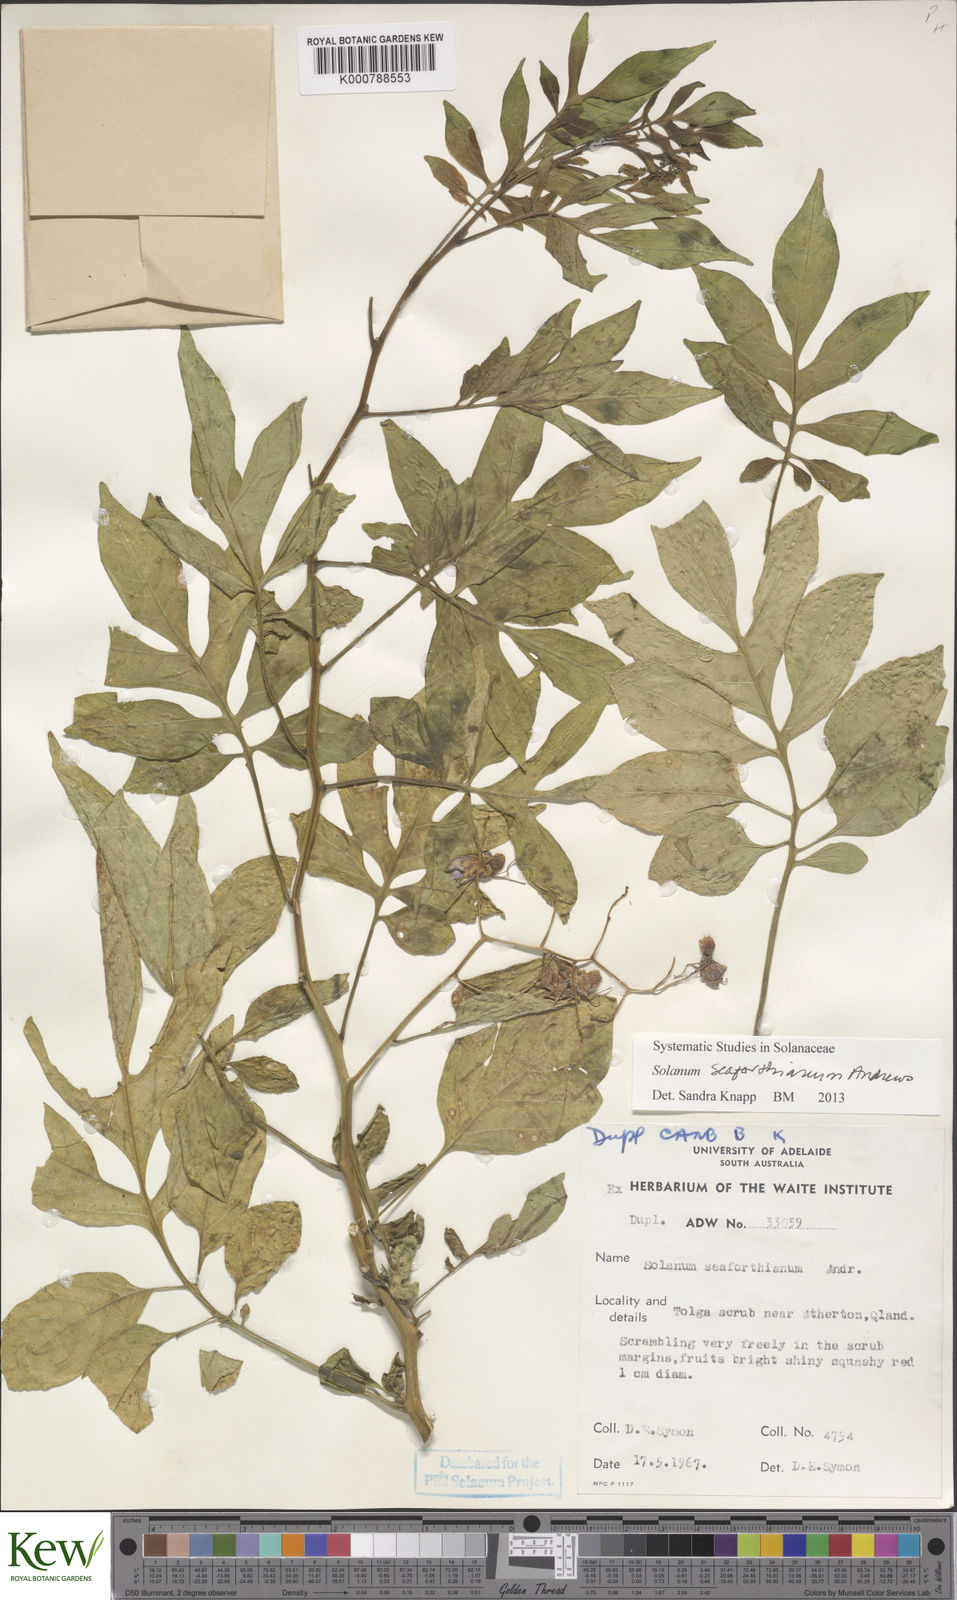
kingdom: Plantae
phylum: Tracheophyta
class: Magnoliopsida
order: Solanales
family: Solanaceae
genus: Solanum
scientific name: Solanum seaforthianum
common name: Brazilian nightshade
